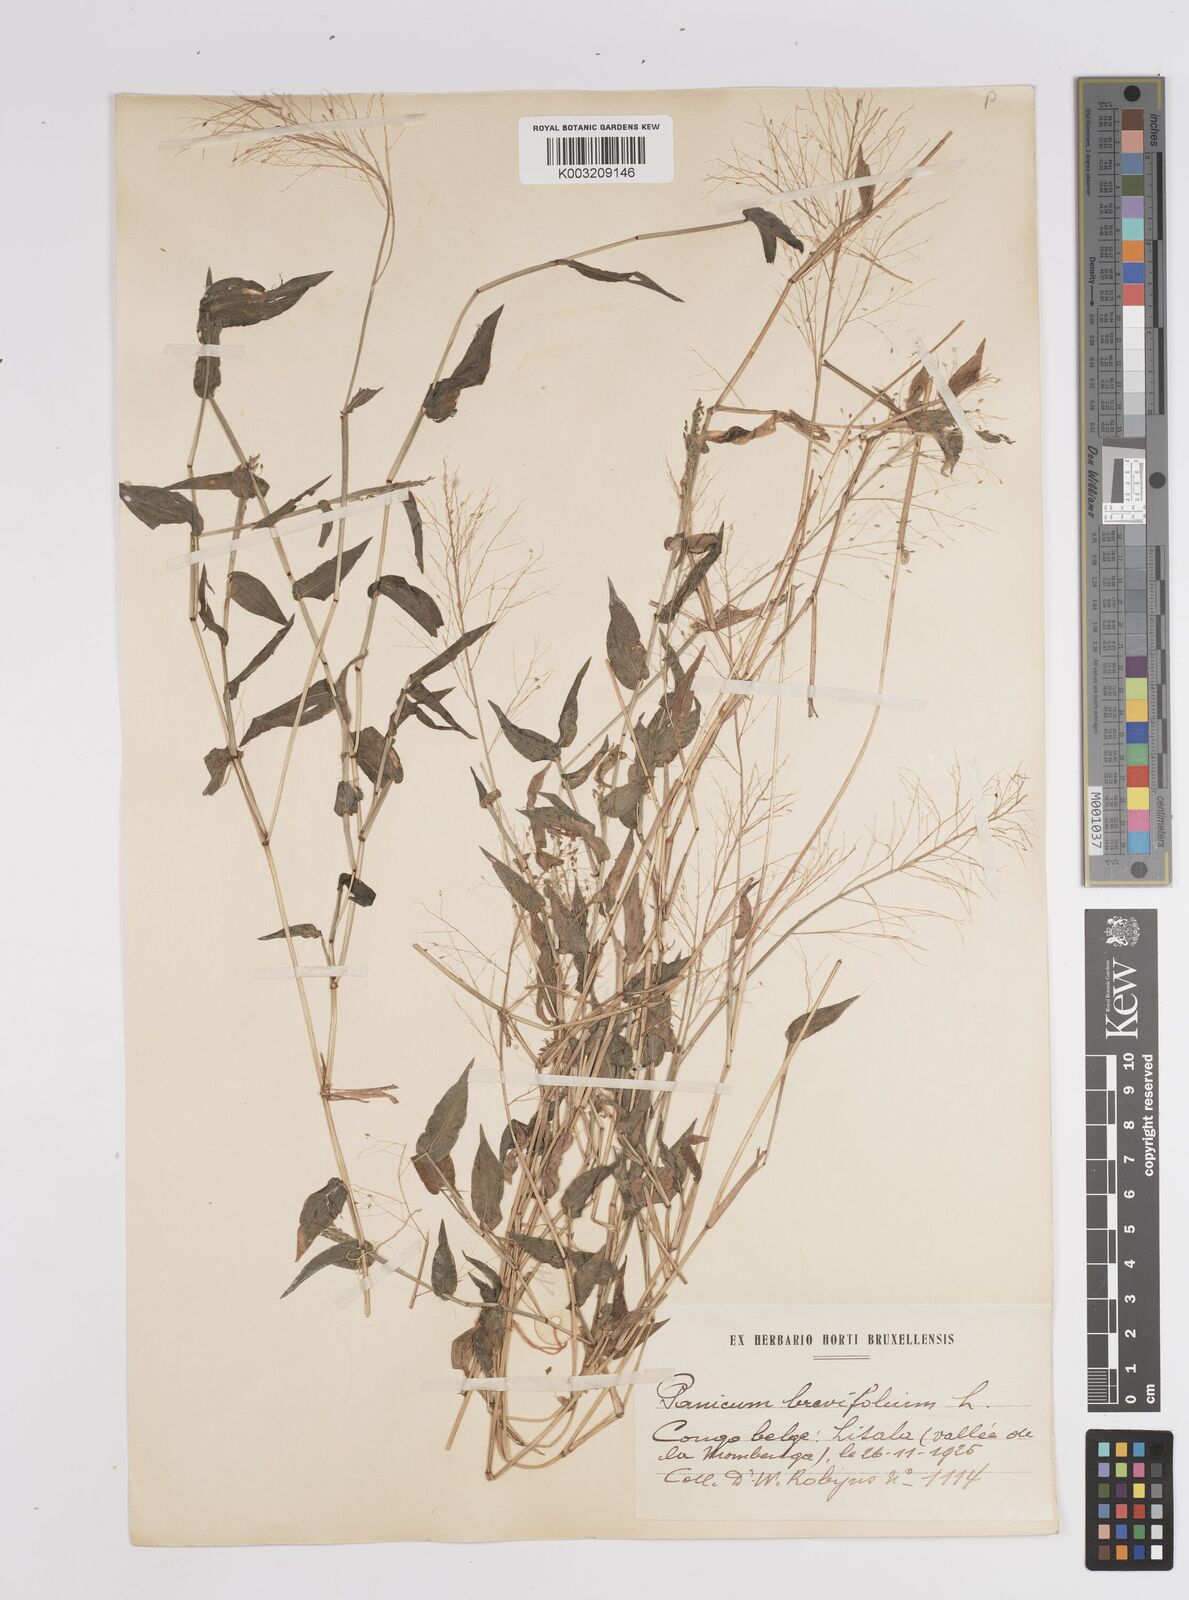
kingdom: Plantae
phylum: Tracheophyta
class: Liliopsida
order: Poales
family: Poaceae
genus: Panicum
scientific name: Panicum brevifolium
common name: Shortleaf panic grass
